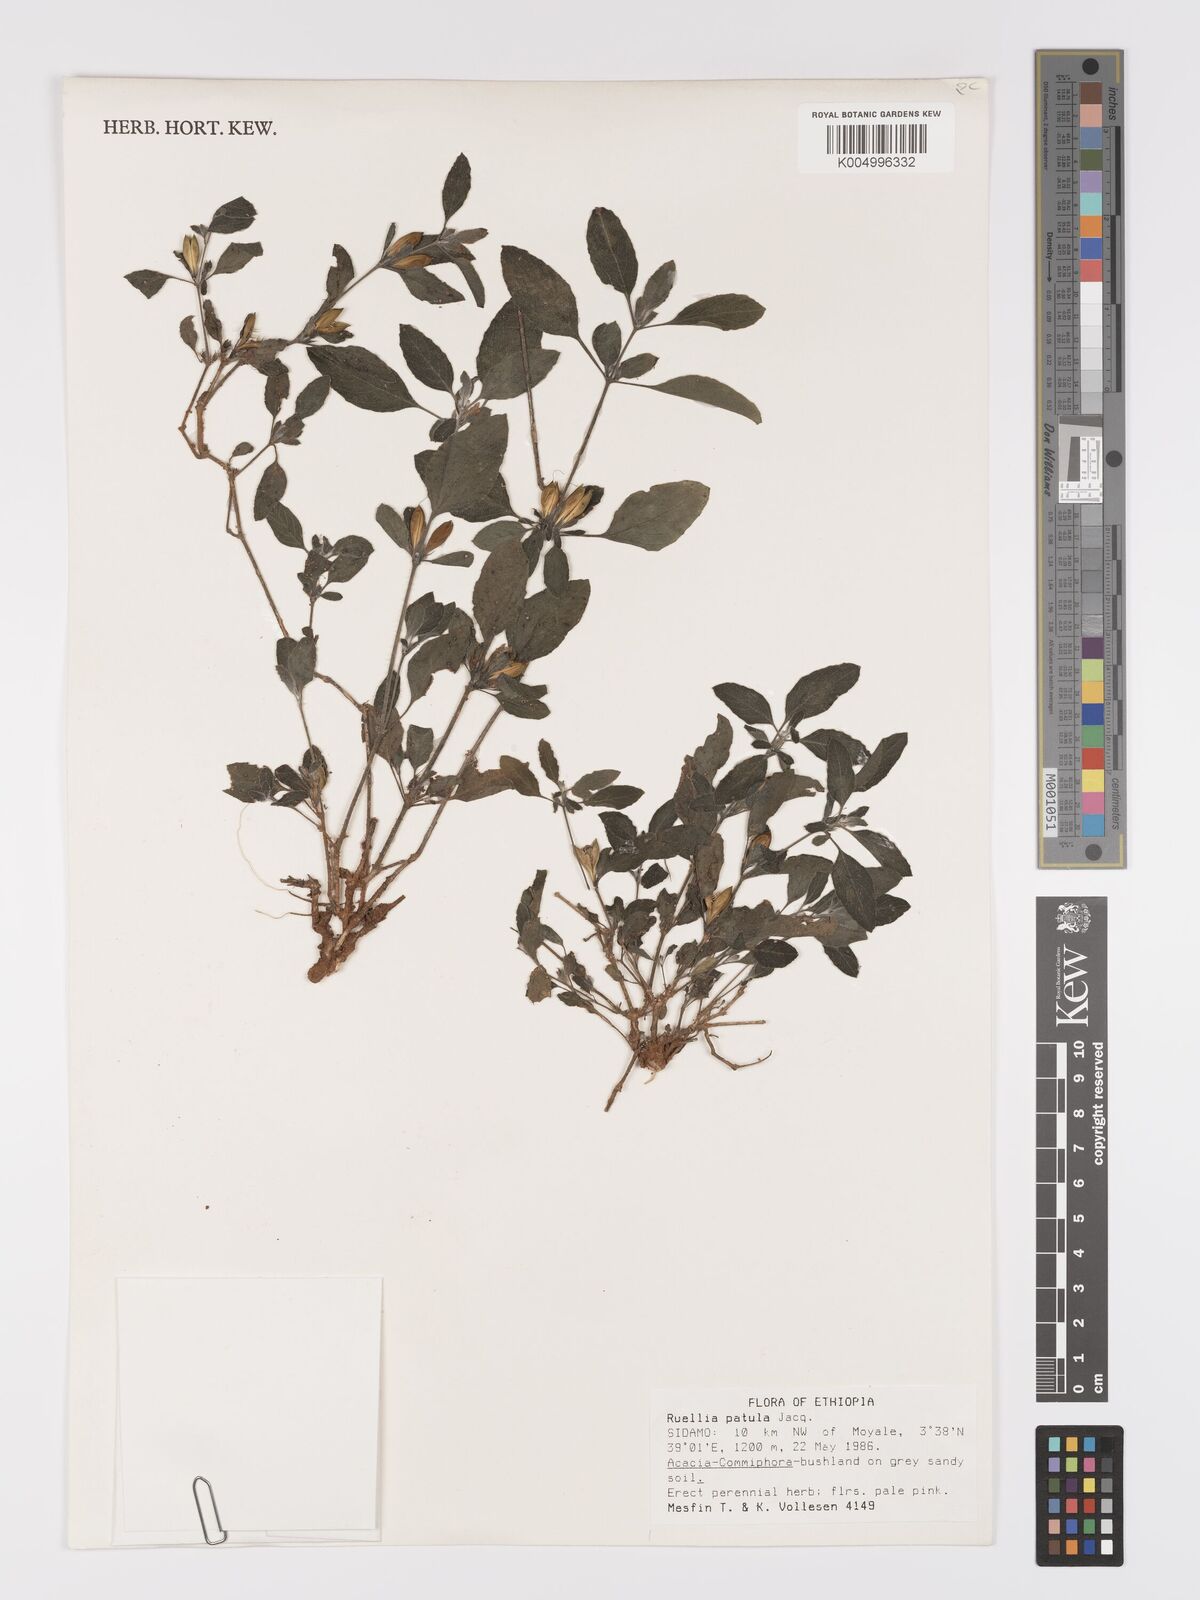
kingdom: Plantae
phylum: Tracheophyta
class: Magnoliopsida
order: Lamiales
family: Acanthaceae
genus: Ruellia
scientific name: Ruellia patula
